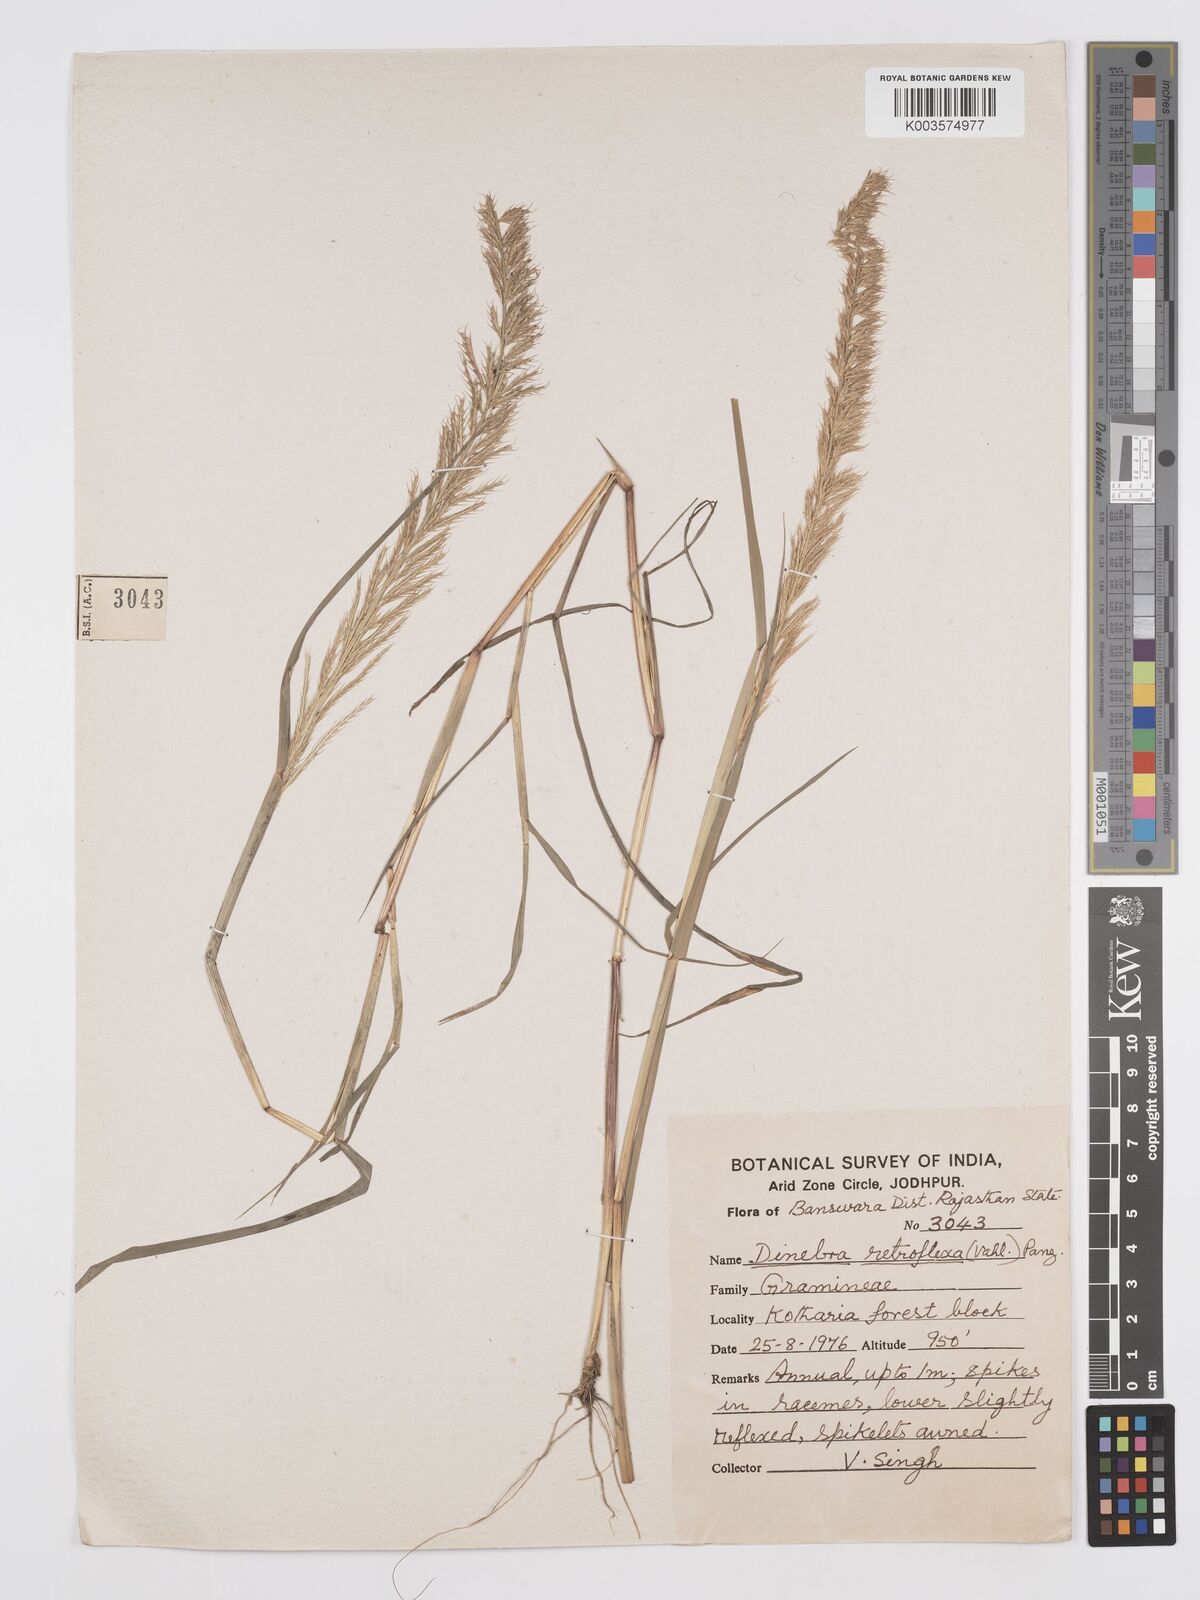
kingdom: Plantae
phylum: Tracheophyta
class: Liliopsida
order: Poales
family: Poaceae
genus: Dinebra
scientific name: Dinebra retroflexa
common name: Viper grass
